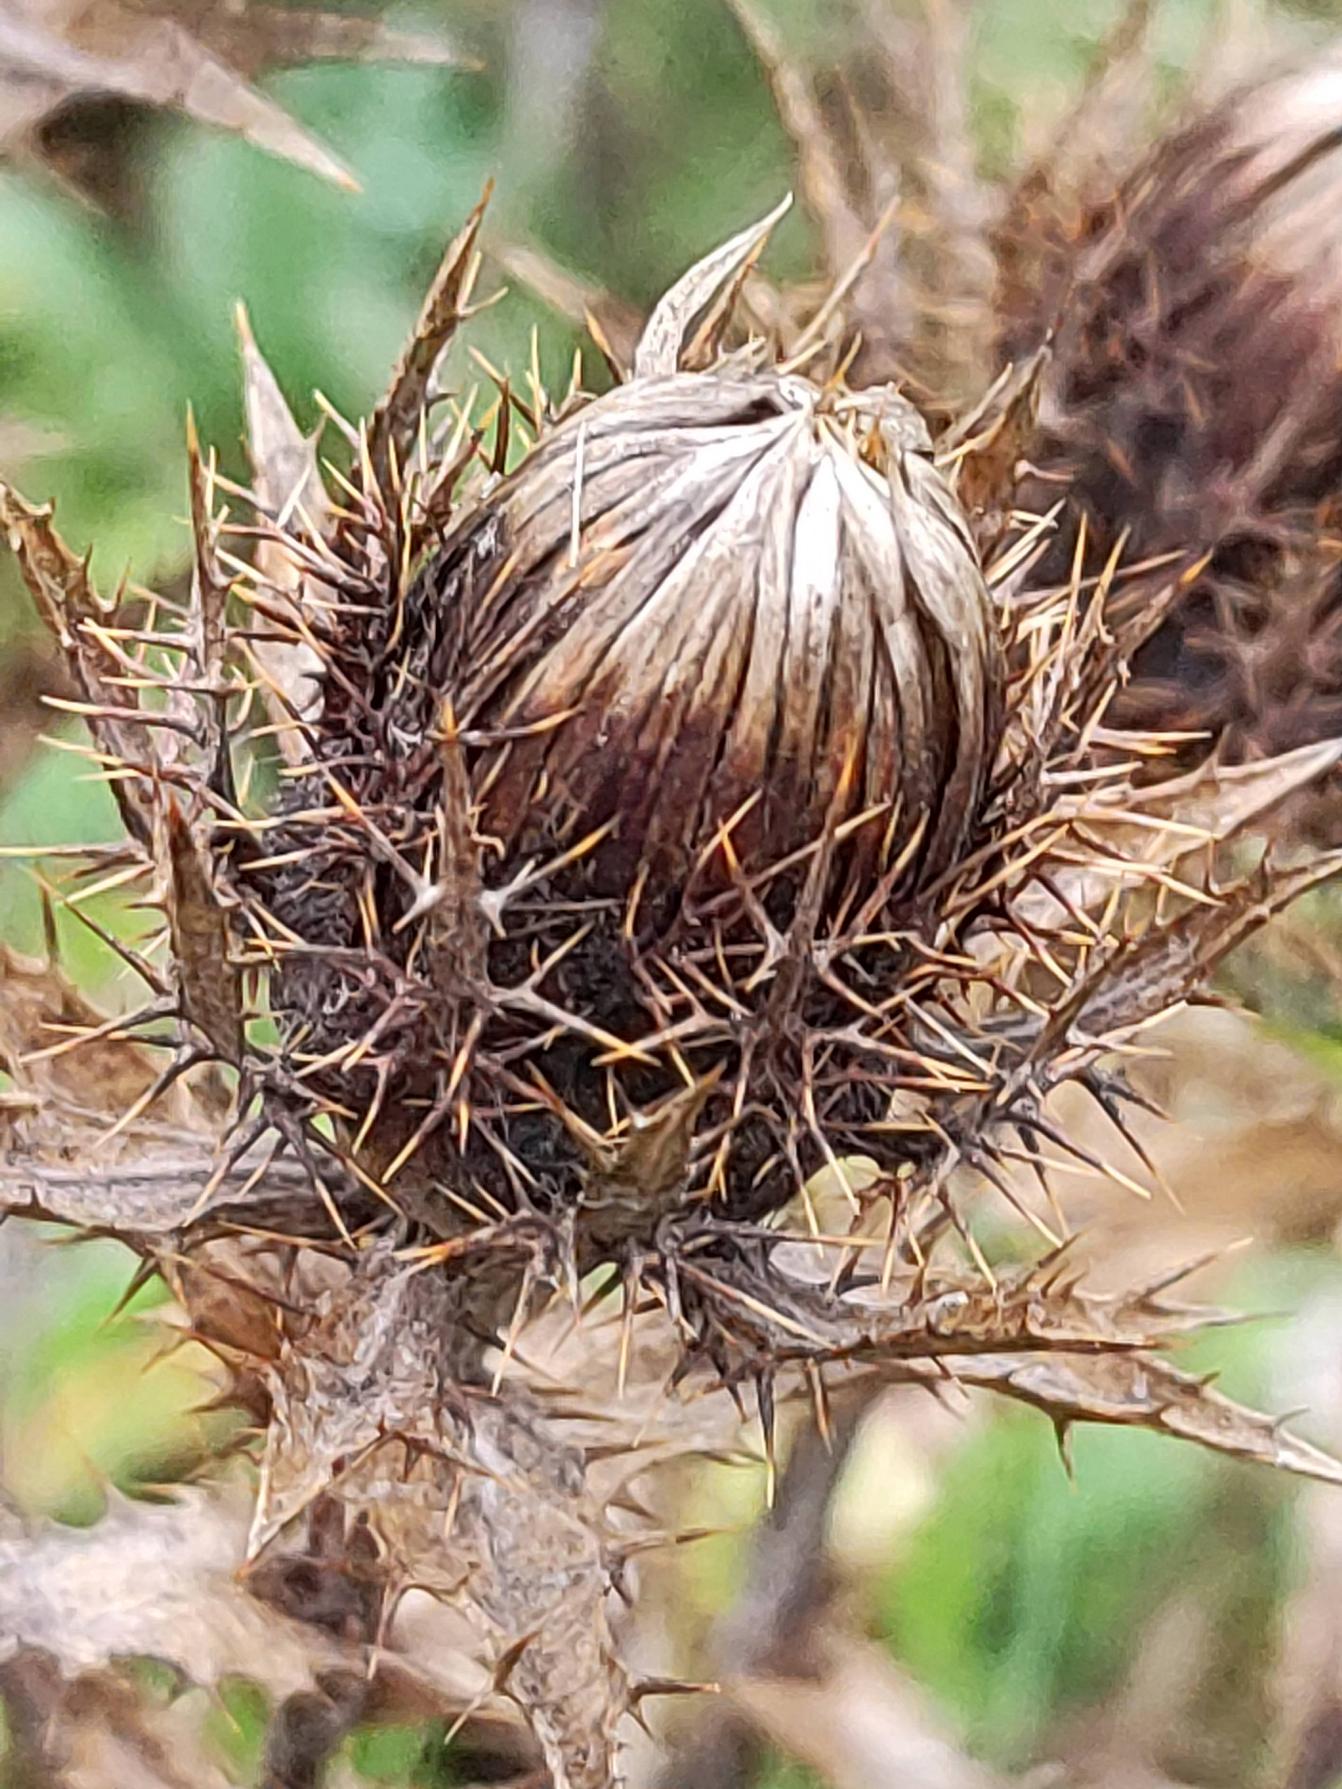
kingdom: Plantae
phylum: Tracheophyta
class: Magnoliopsida
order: Asterales
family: Asteraceae
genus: Carlina
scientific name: Carlina vulgaris
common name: Bakketidsel
